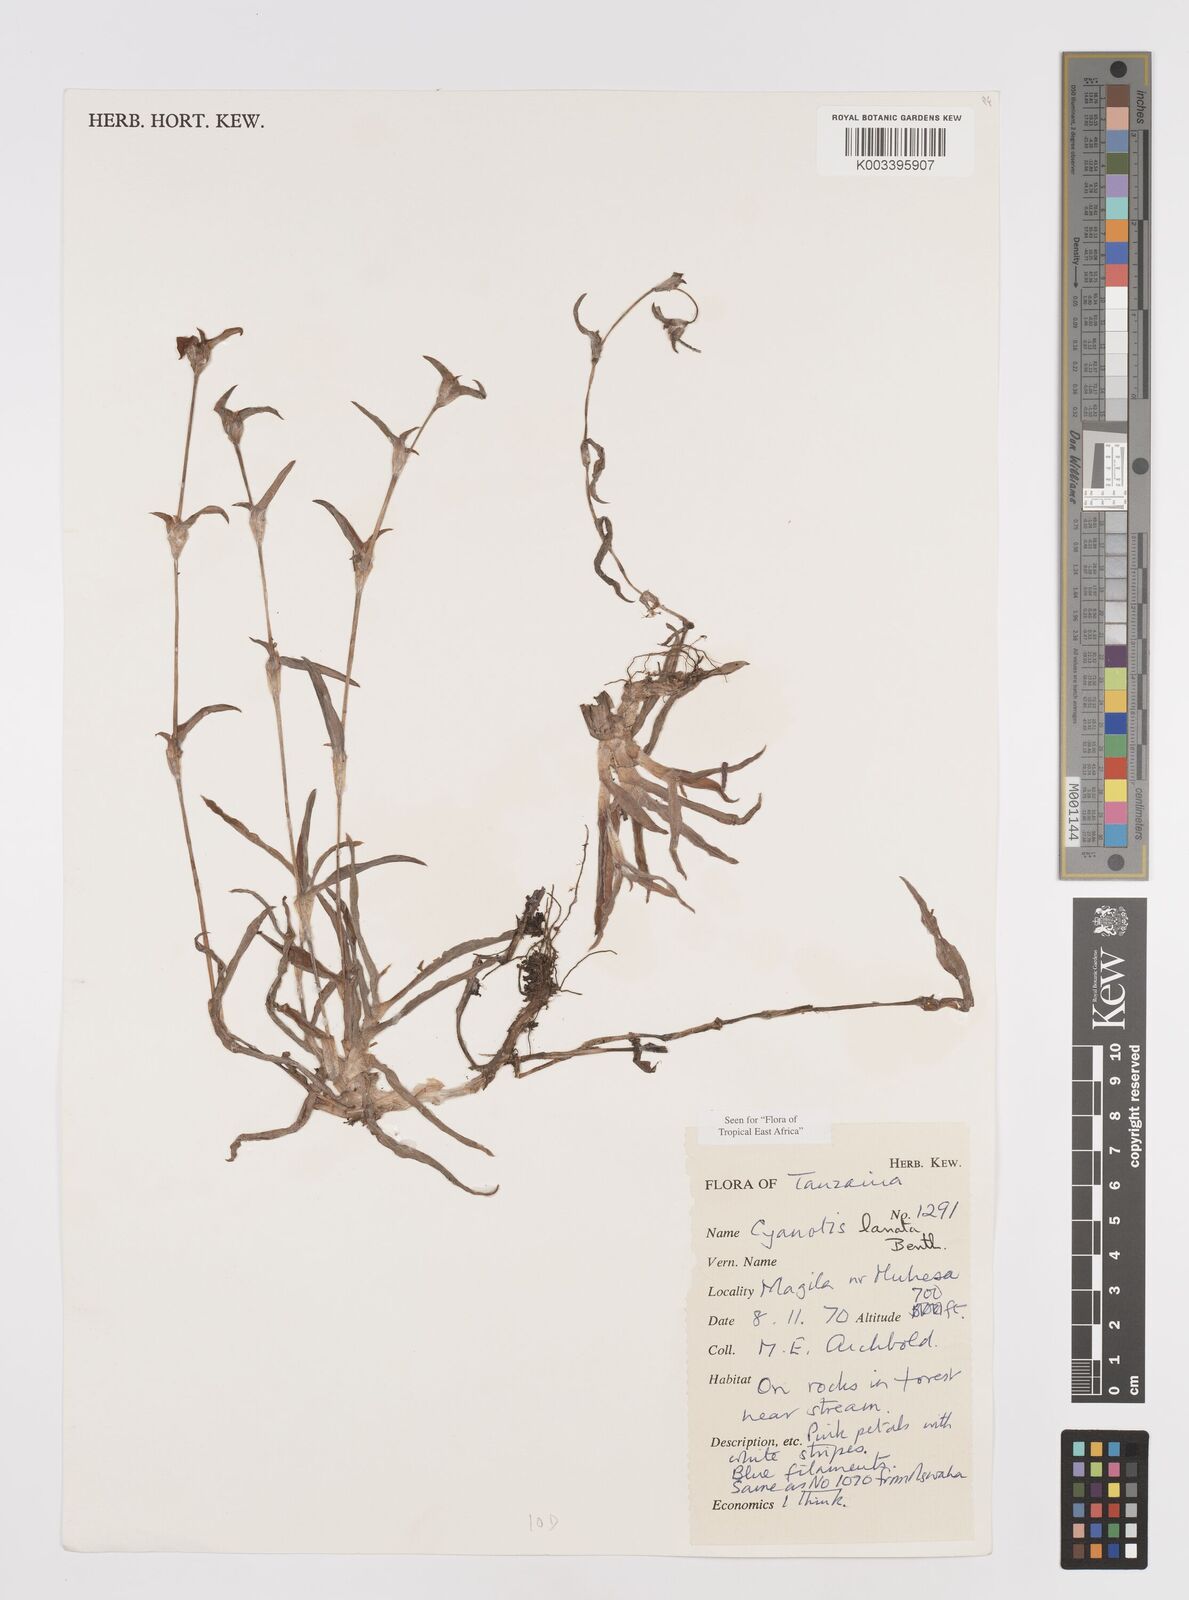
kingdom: Plantae
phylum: Tracheophyta
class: Liliopsida
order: Commelinales
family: Commelinaceae
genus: Cyanotis
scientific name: Cyanotis lanata
